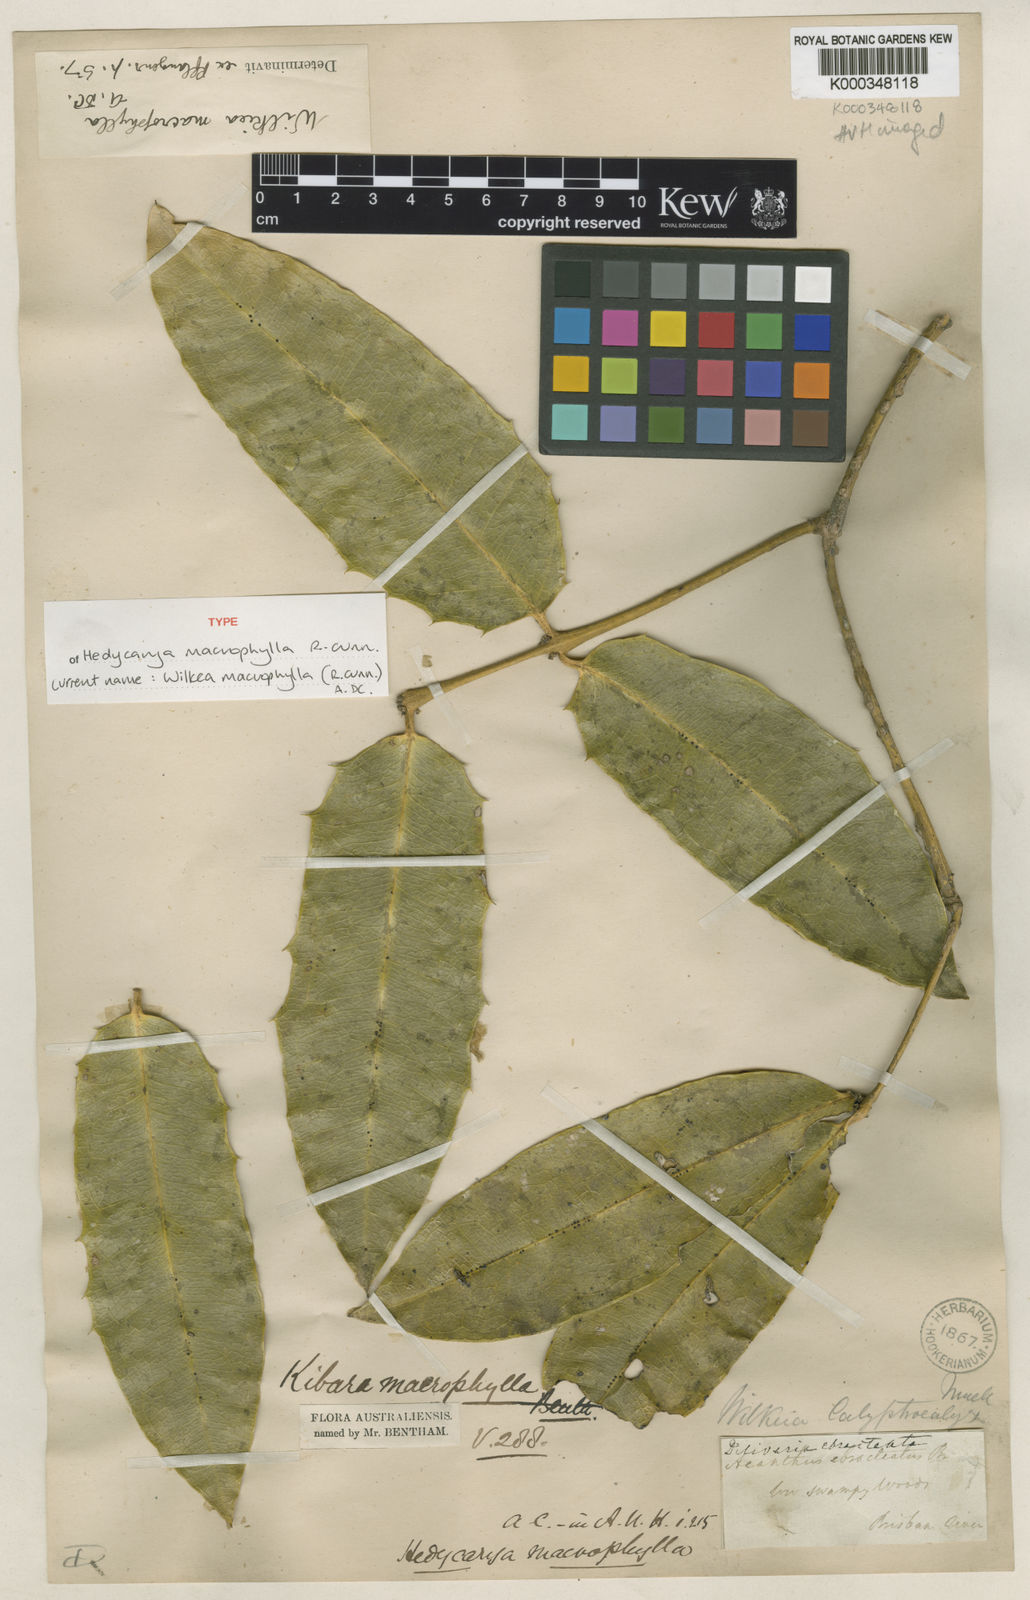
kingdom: Plantae
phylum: Tracheophyta
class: Magnoliopsida
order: Laurales
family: Monimiaceae
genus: Wilkiea
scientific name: Wilkiea macrophylla
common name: Large-leaved wilkiea
